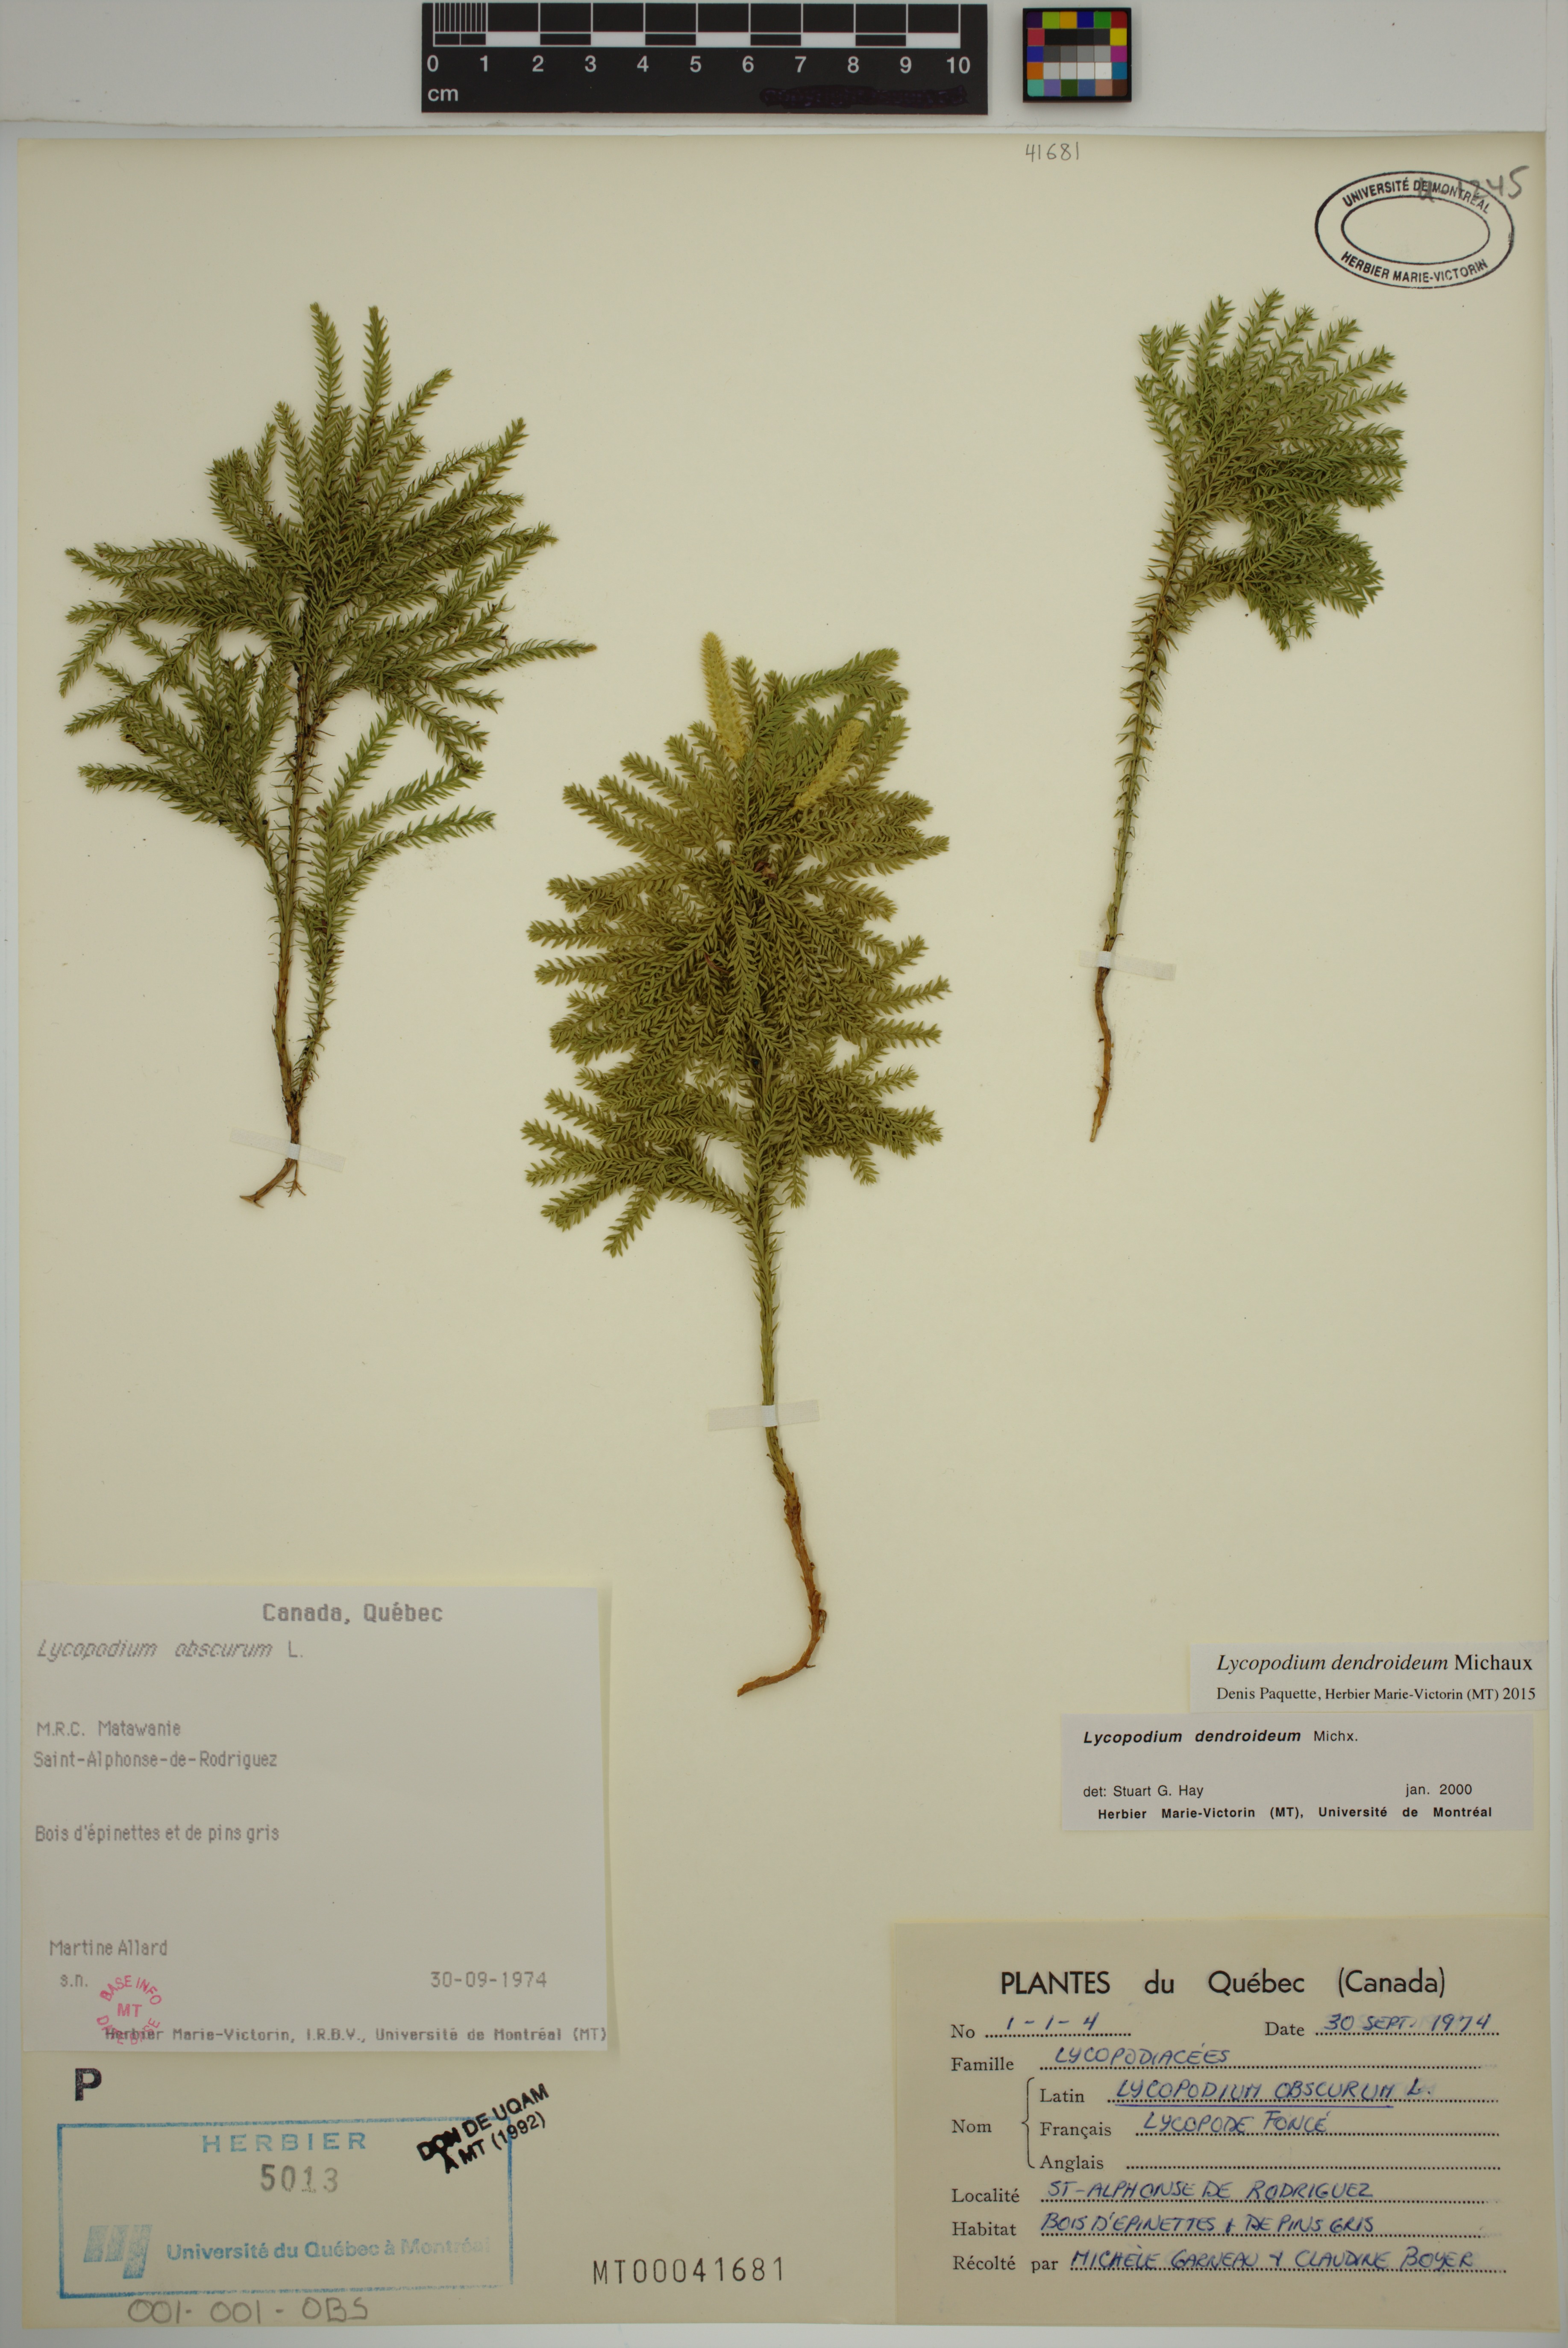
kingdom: Plantae
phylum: Tracheophyta
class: Lycopodiopsida
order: Lycopodiales
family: Lycopodiaceae
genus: Dendrolycopodium
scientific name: Dendrolycopodium dendroideum
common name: Northern tree-clubmoss
